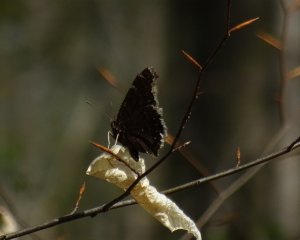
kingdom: Animalia
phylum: Arthropoda
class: Insecta
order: Lepidoptera
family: Nymphalidae
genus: Nymphalis
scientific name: Nymphalis antiopa
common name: Mourning Cloak
